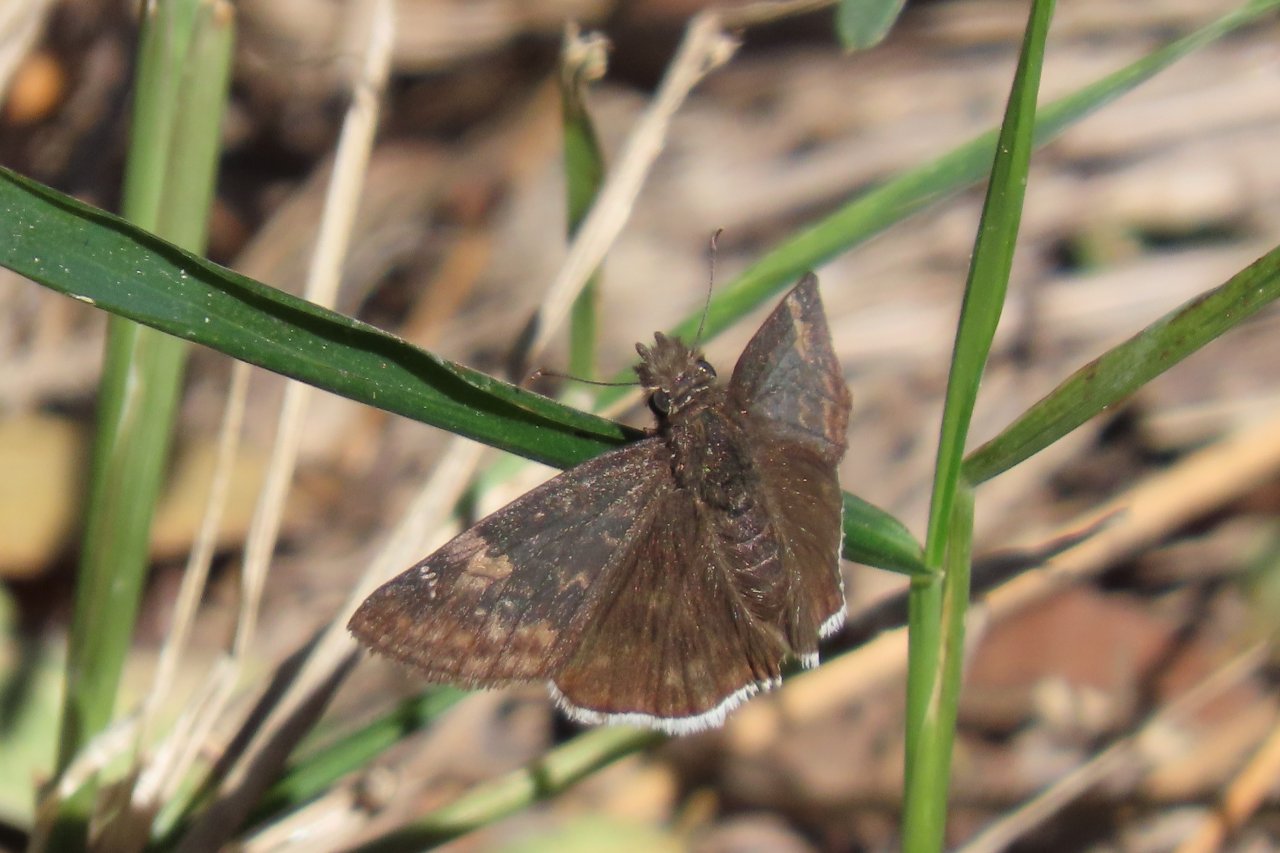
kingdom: Animalia
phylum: Arthropoda
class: Insecta
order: Lepidoptera
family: Hesperiidae
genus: Erynnis
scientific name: Erynnis funeralis
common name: Funereal Duskywing
